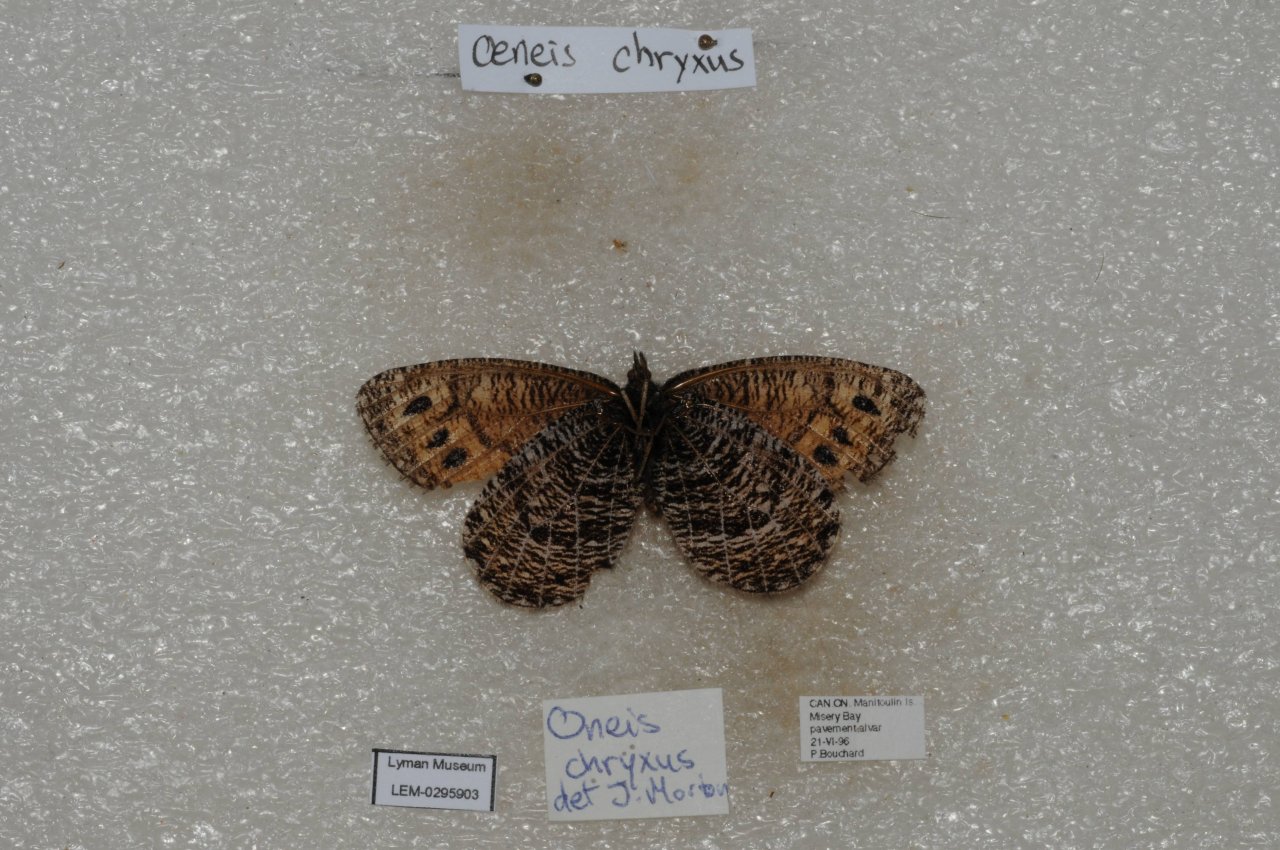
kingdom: Animalia
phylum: Arthropoda
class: Insecta
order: Lepidoptera
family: Nymphalidae
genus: Oeneis
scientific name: Oeneis chryxus
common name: Chryxus Arctic
